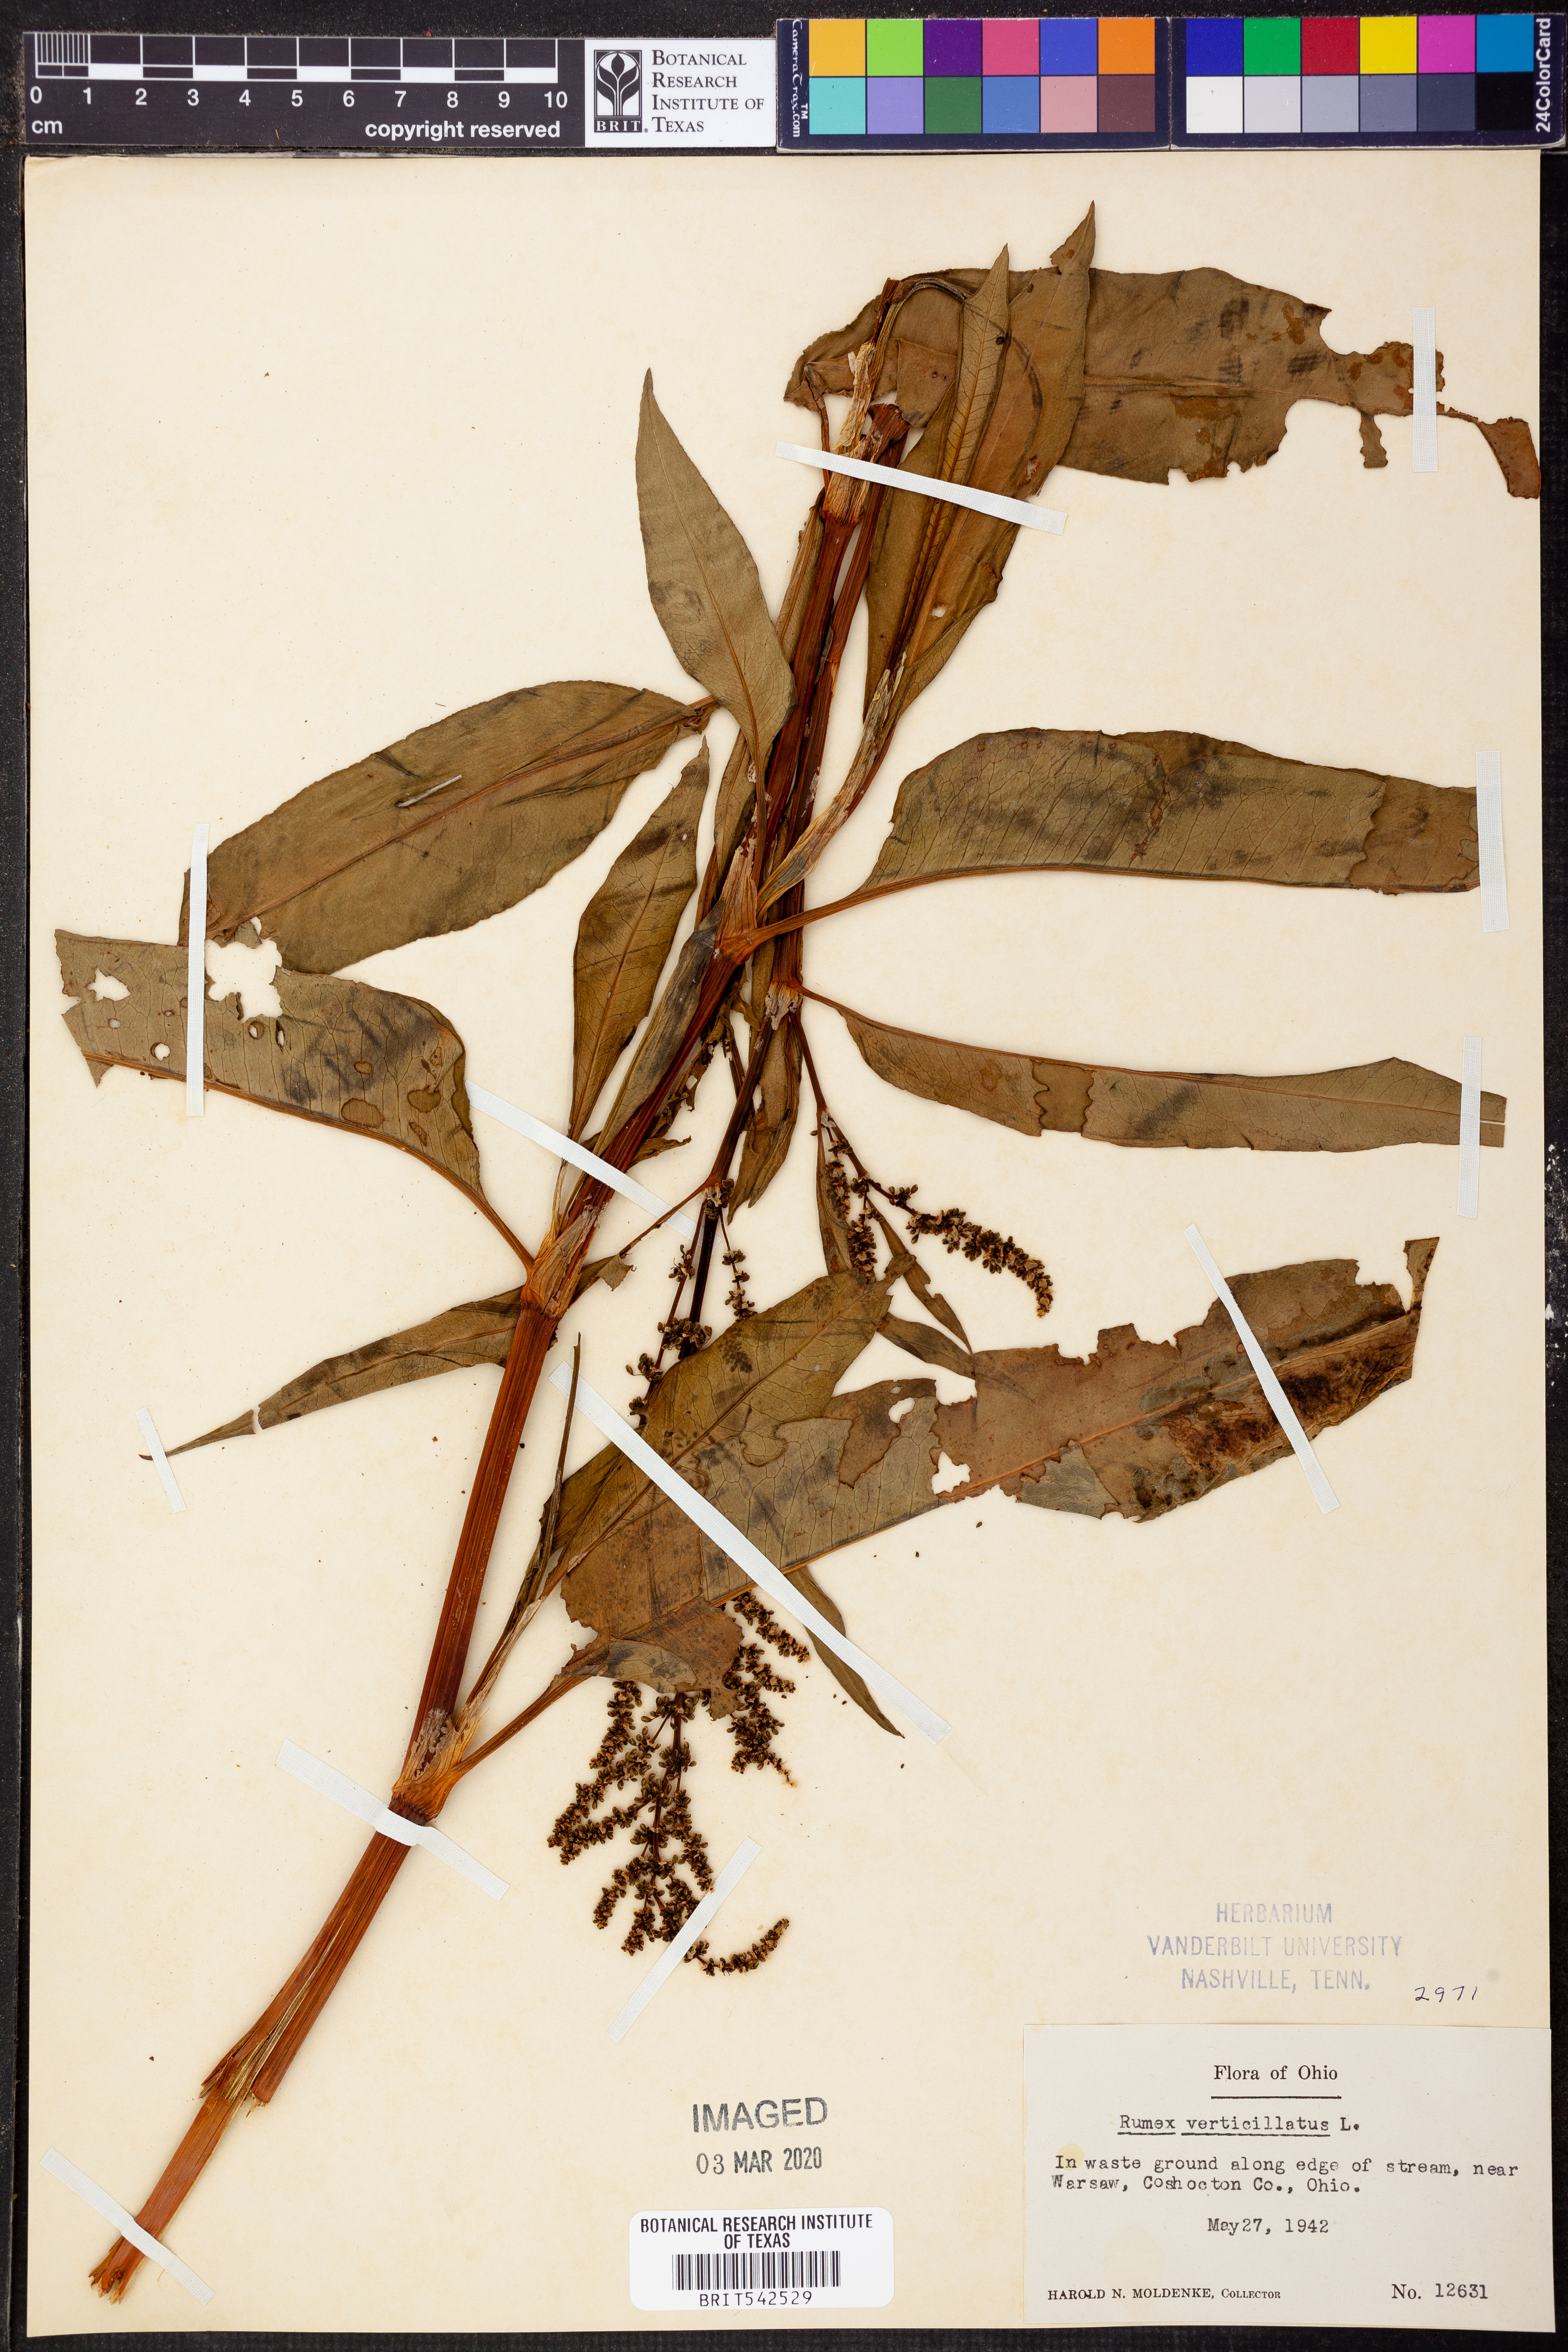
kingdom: Plantae
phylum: Tracheophyta
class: Magnoliopsida
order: Caryophyllales
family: Polygonaceae
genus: Rumex
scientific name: Rumex verticillatus
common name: Swamp dock
